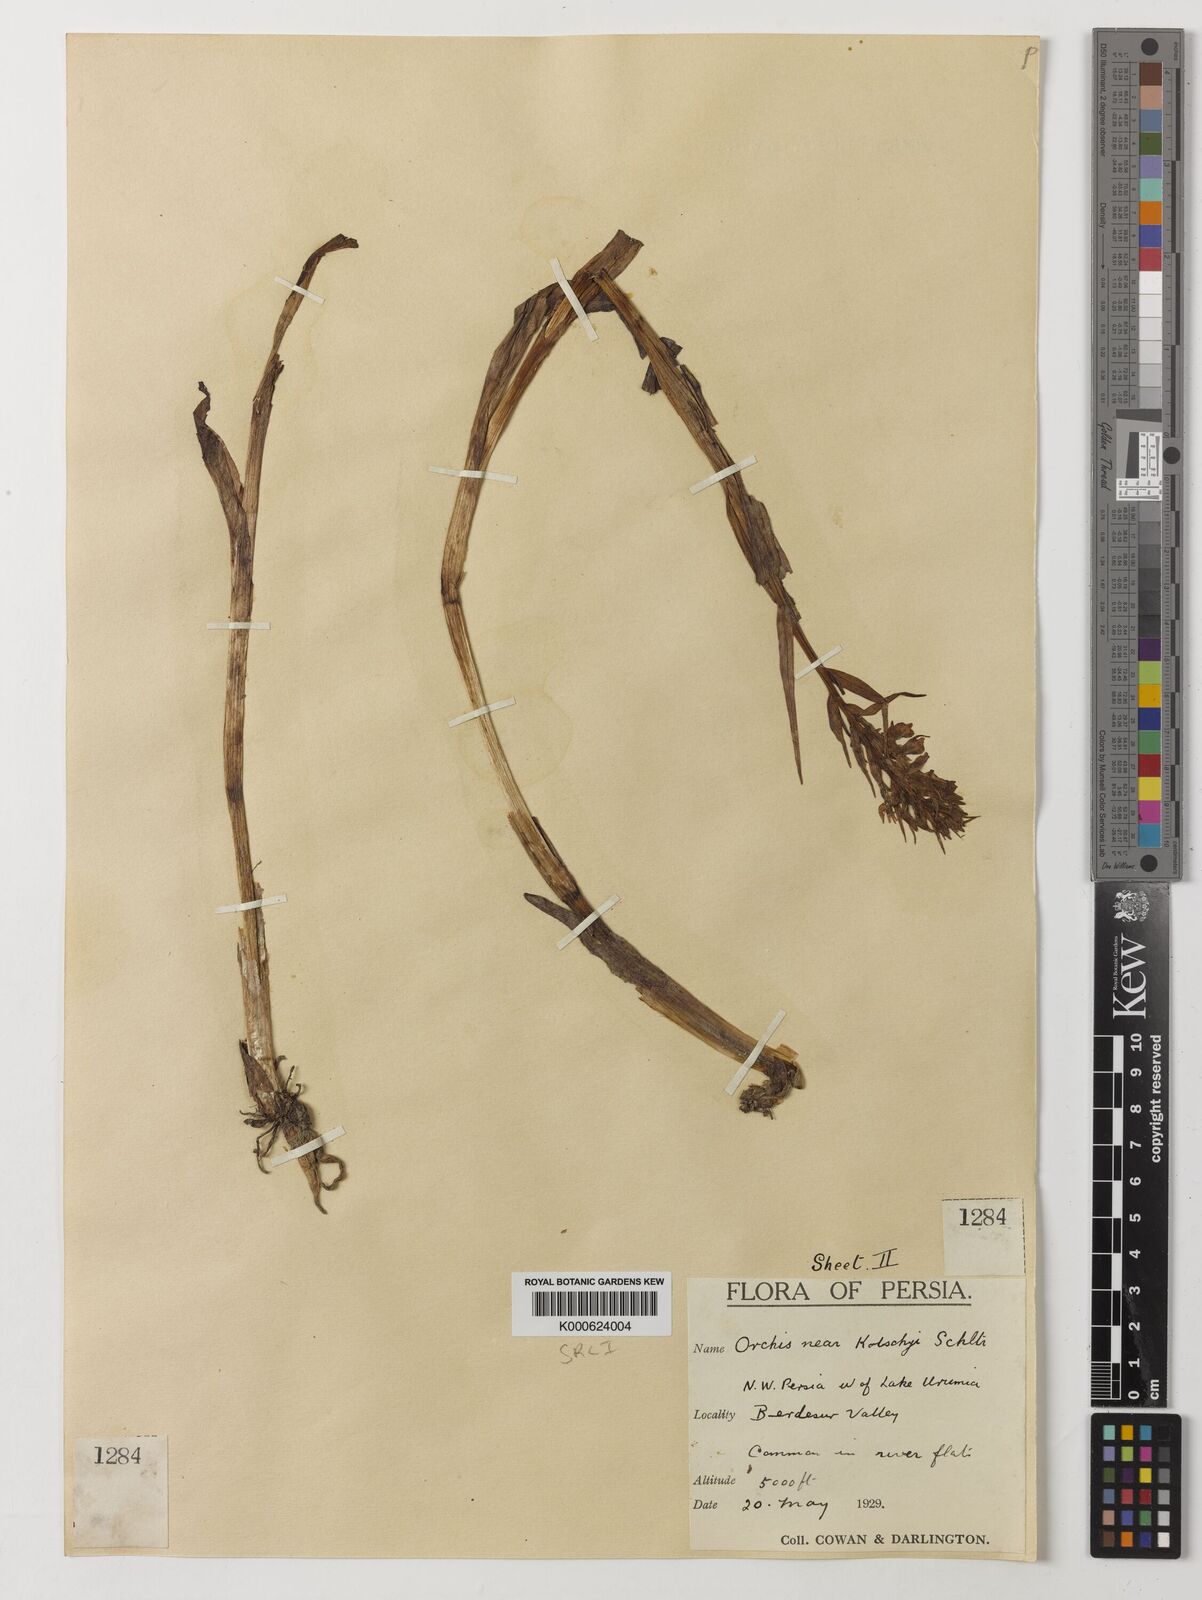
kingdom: Plantae
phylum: Tracheophyta
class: Liliopsida
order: Asparagales
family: Orchidaceae
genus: Dactylorhiza
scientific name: Dactylorhiza
